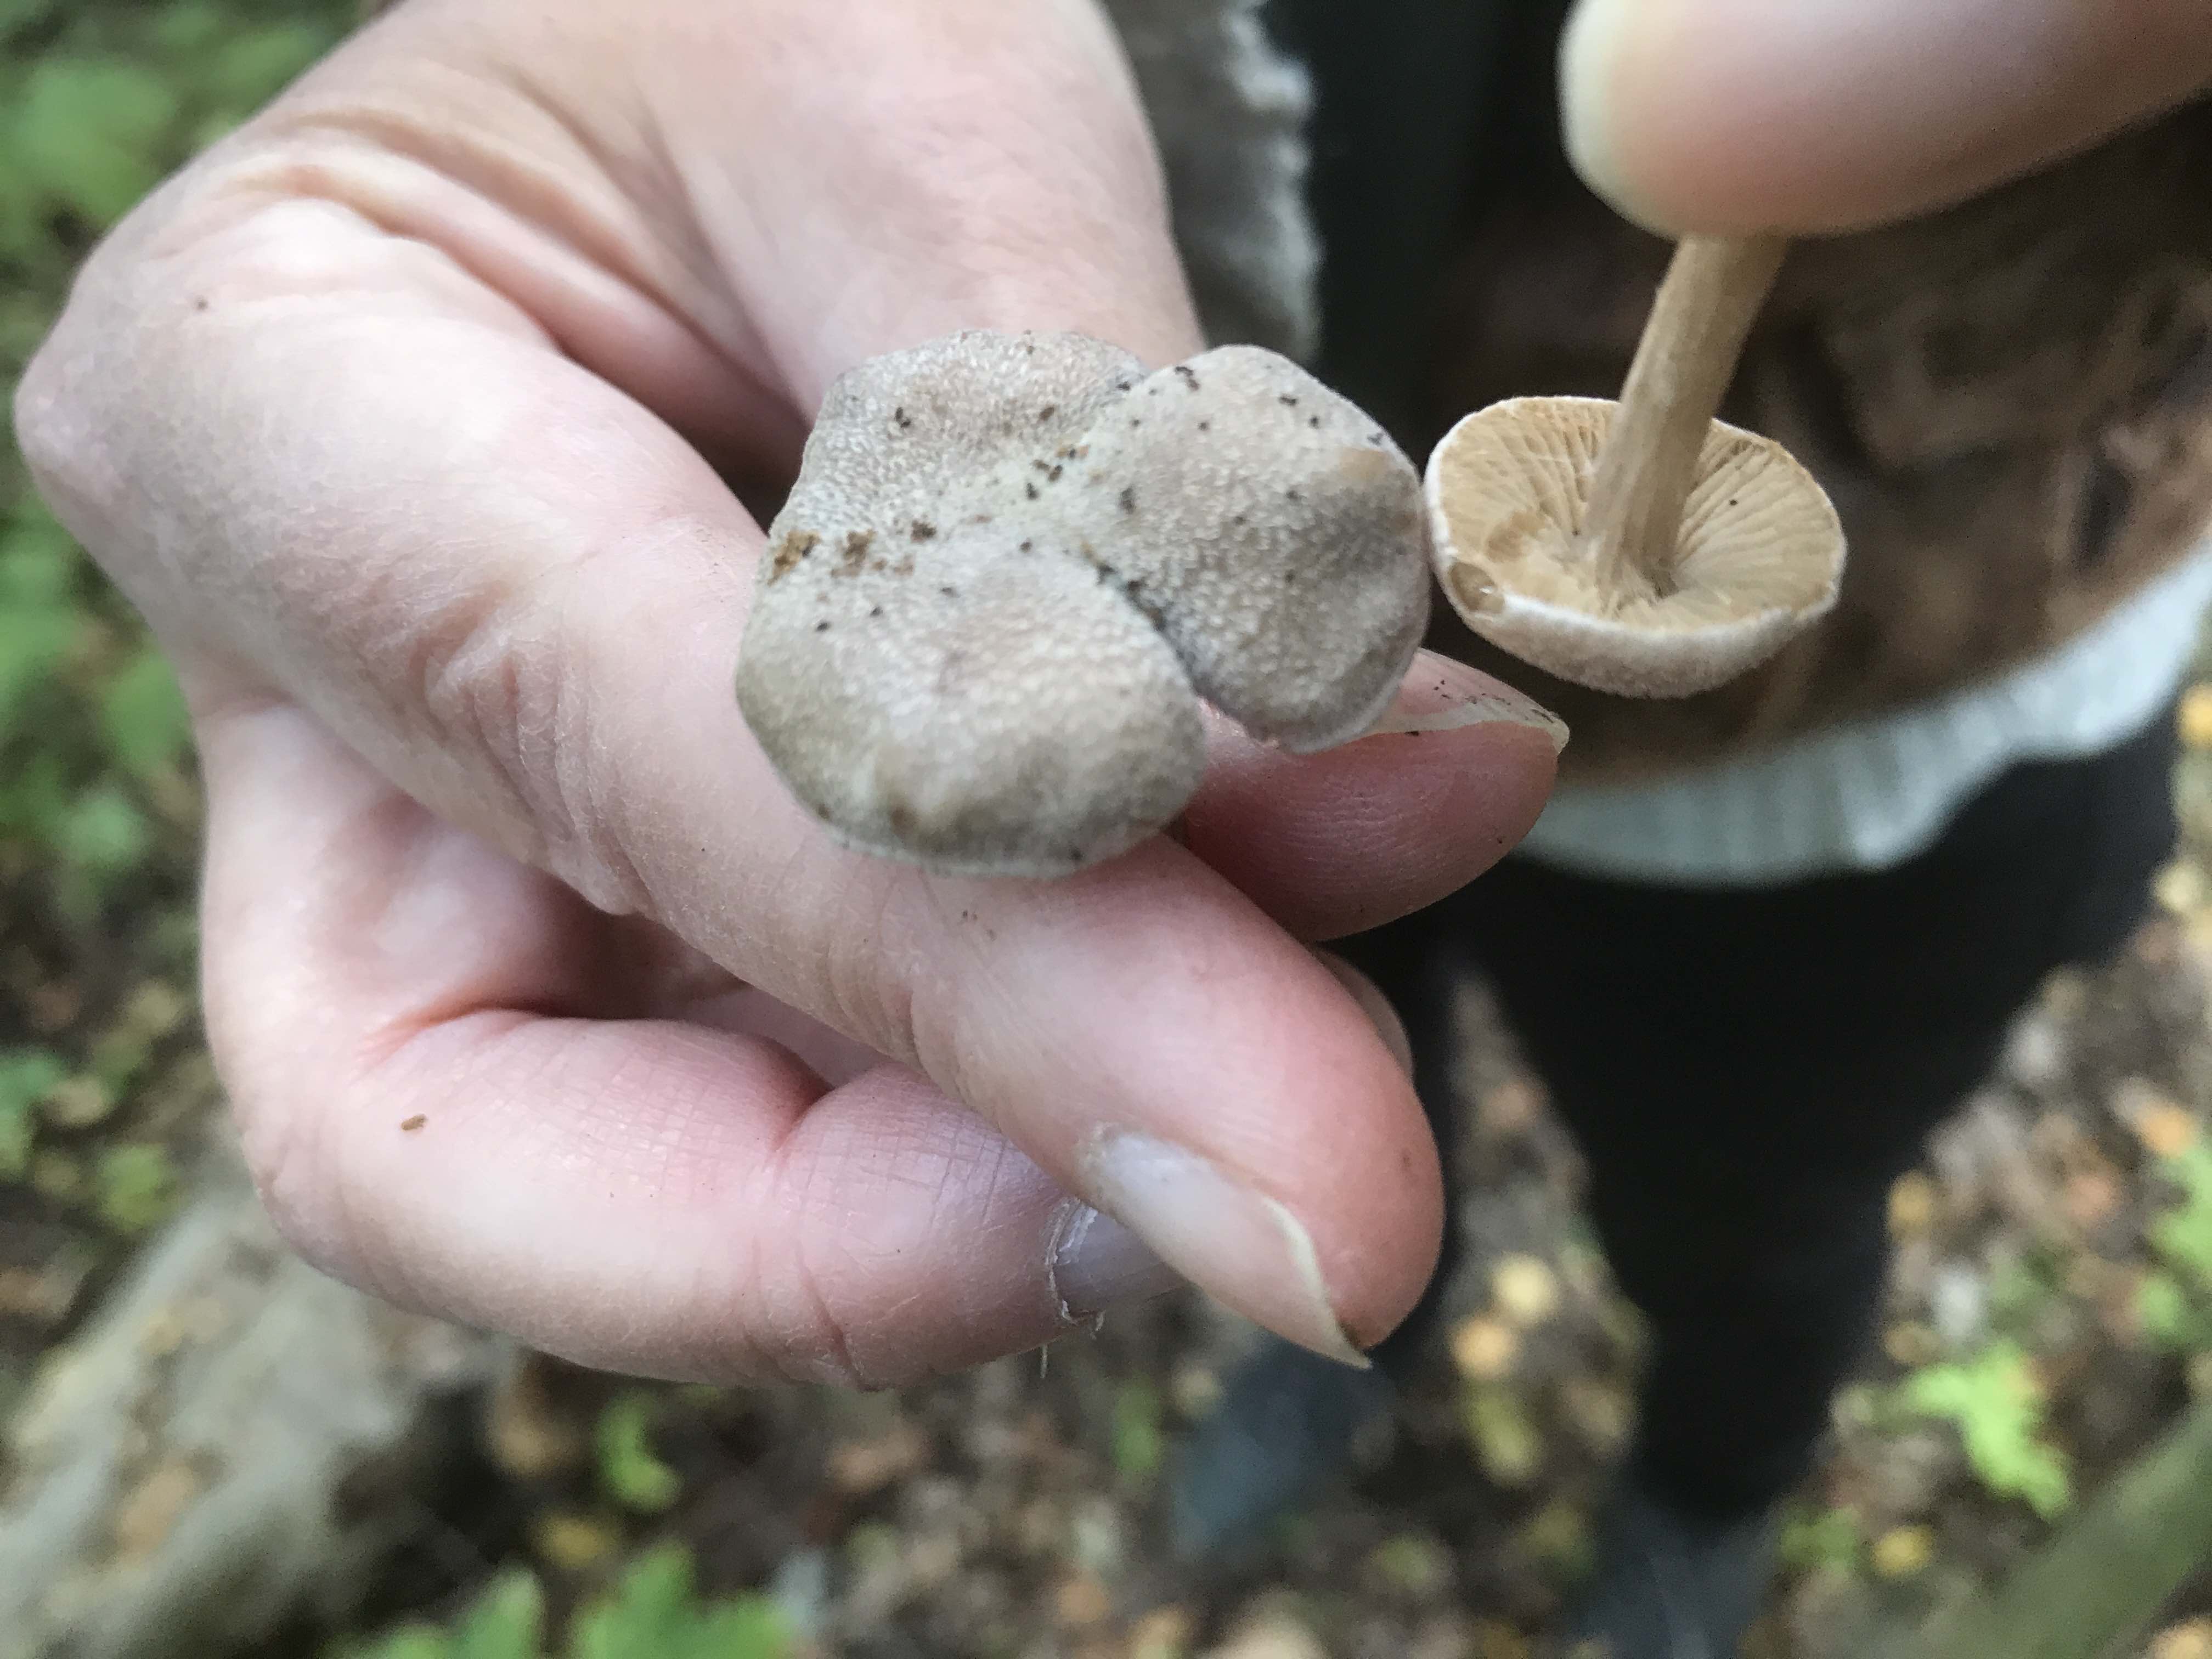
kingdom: Fungi
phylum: Basidiomycota
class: Agaricomycetes
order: Agaricales
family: Cortinariaceae
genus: Cortinarius
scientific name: Cortinarius hemitrichus
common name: hvidfnugget slørhat
